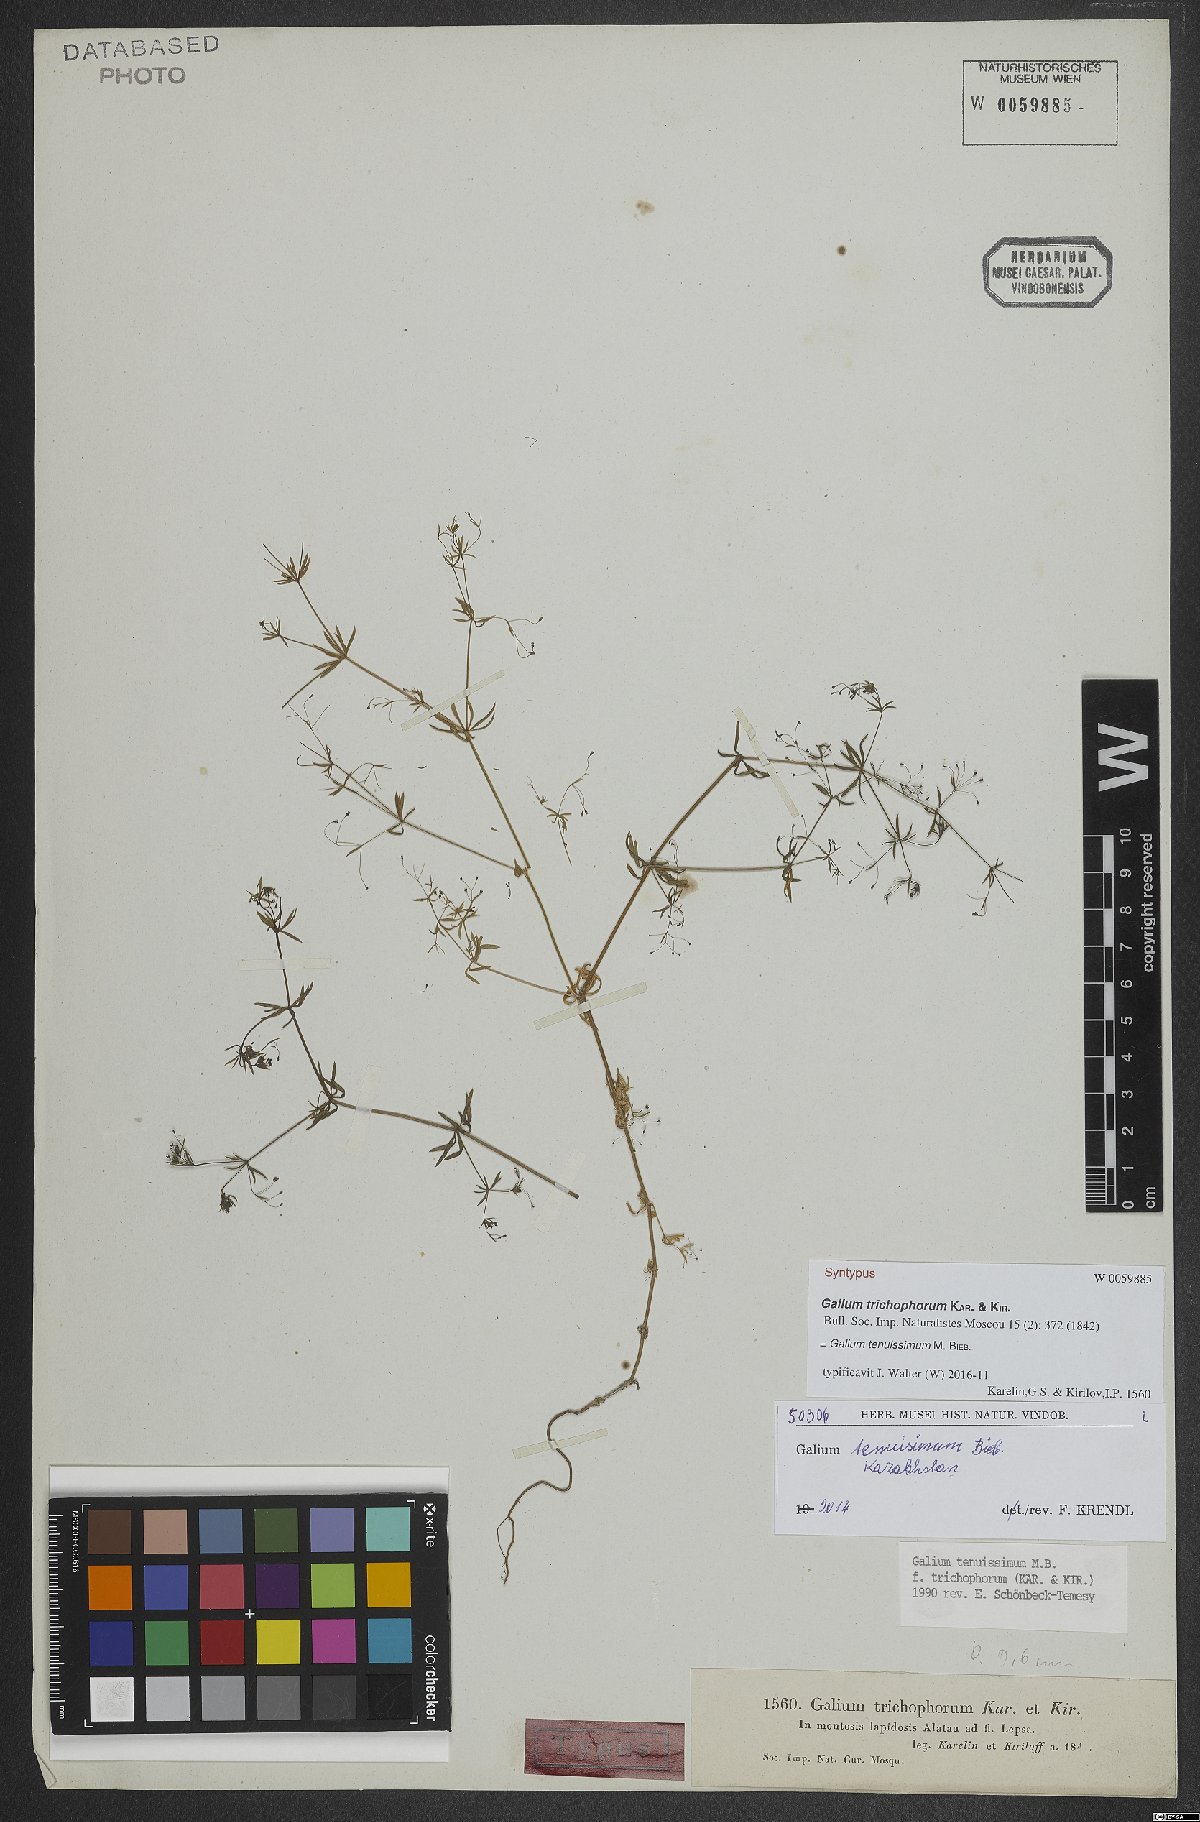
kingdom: Plantae
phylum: Tracheophyta
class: Magnoliopsida
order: Gentianales
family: Rubiaceae
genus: Galium
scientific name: Galium tenuissimum
